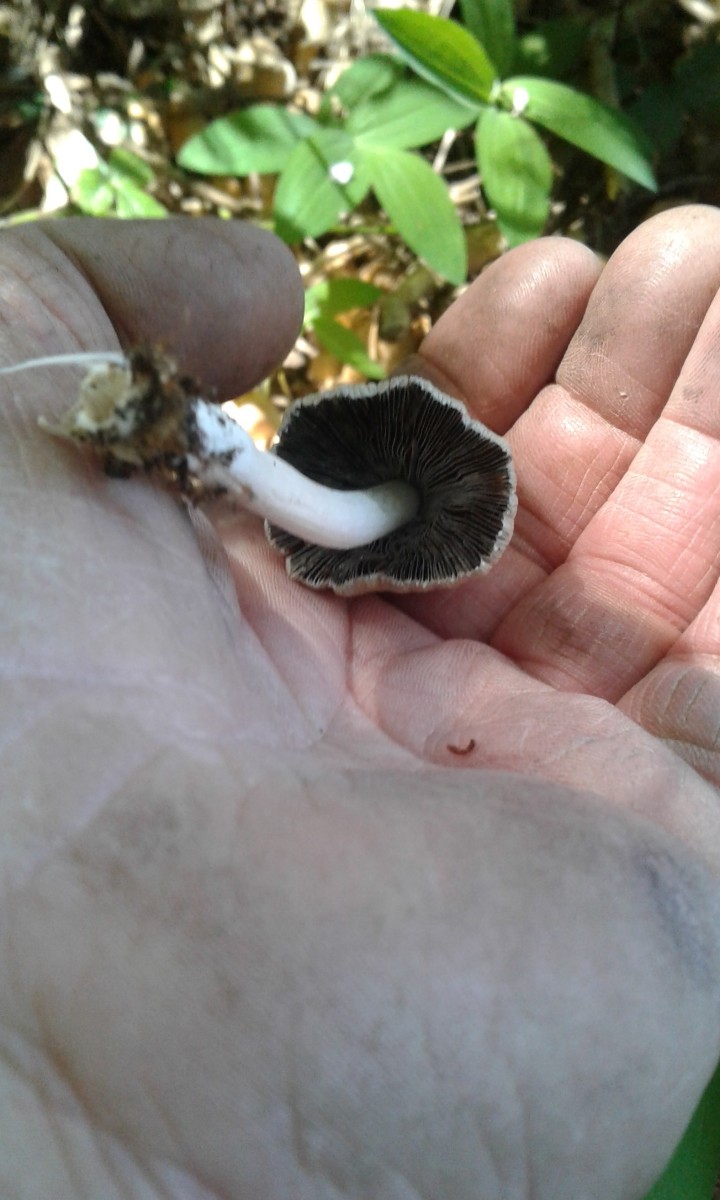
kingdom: Fungi
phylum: Basidiomycota
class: Agaricomycetes
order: Agaricales
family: Psathyrellaceae
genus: Coprinellus
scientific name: Coprinellus micaceus
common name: glimmer-blækhat
